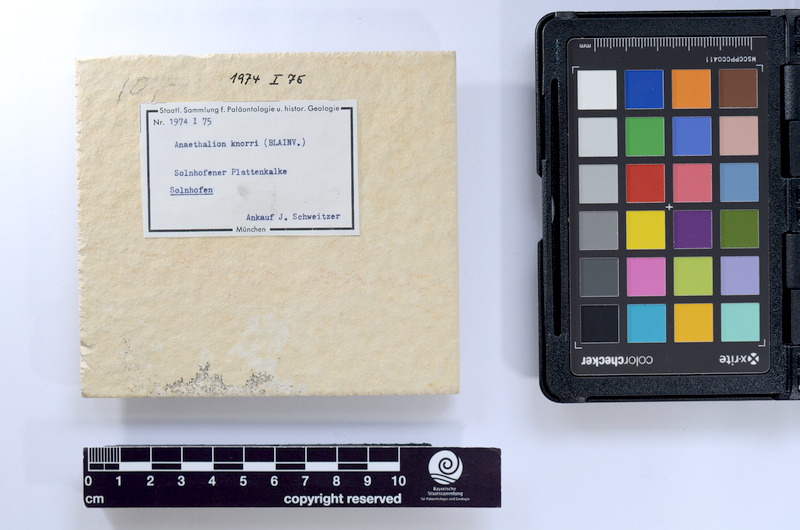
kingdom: Animalia
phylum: Chordata
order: Elopiformes
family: Anaethalionidae
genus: Anaethalion
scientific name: Anaethalion knorri
